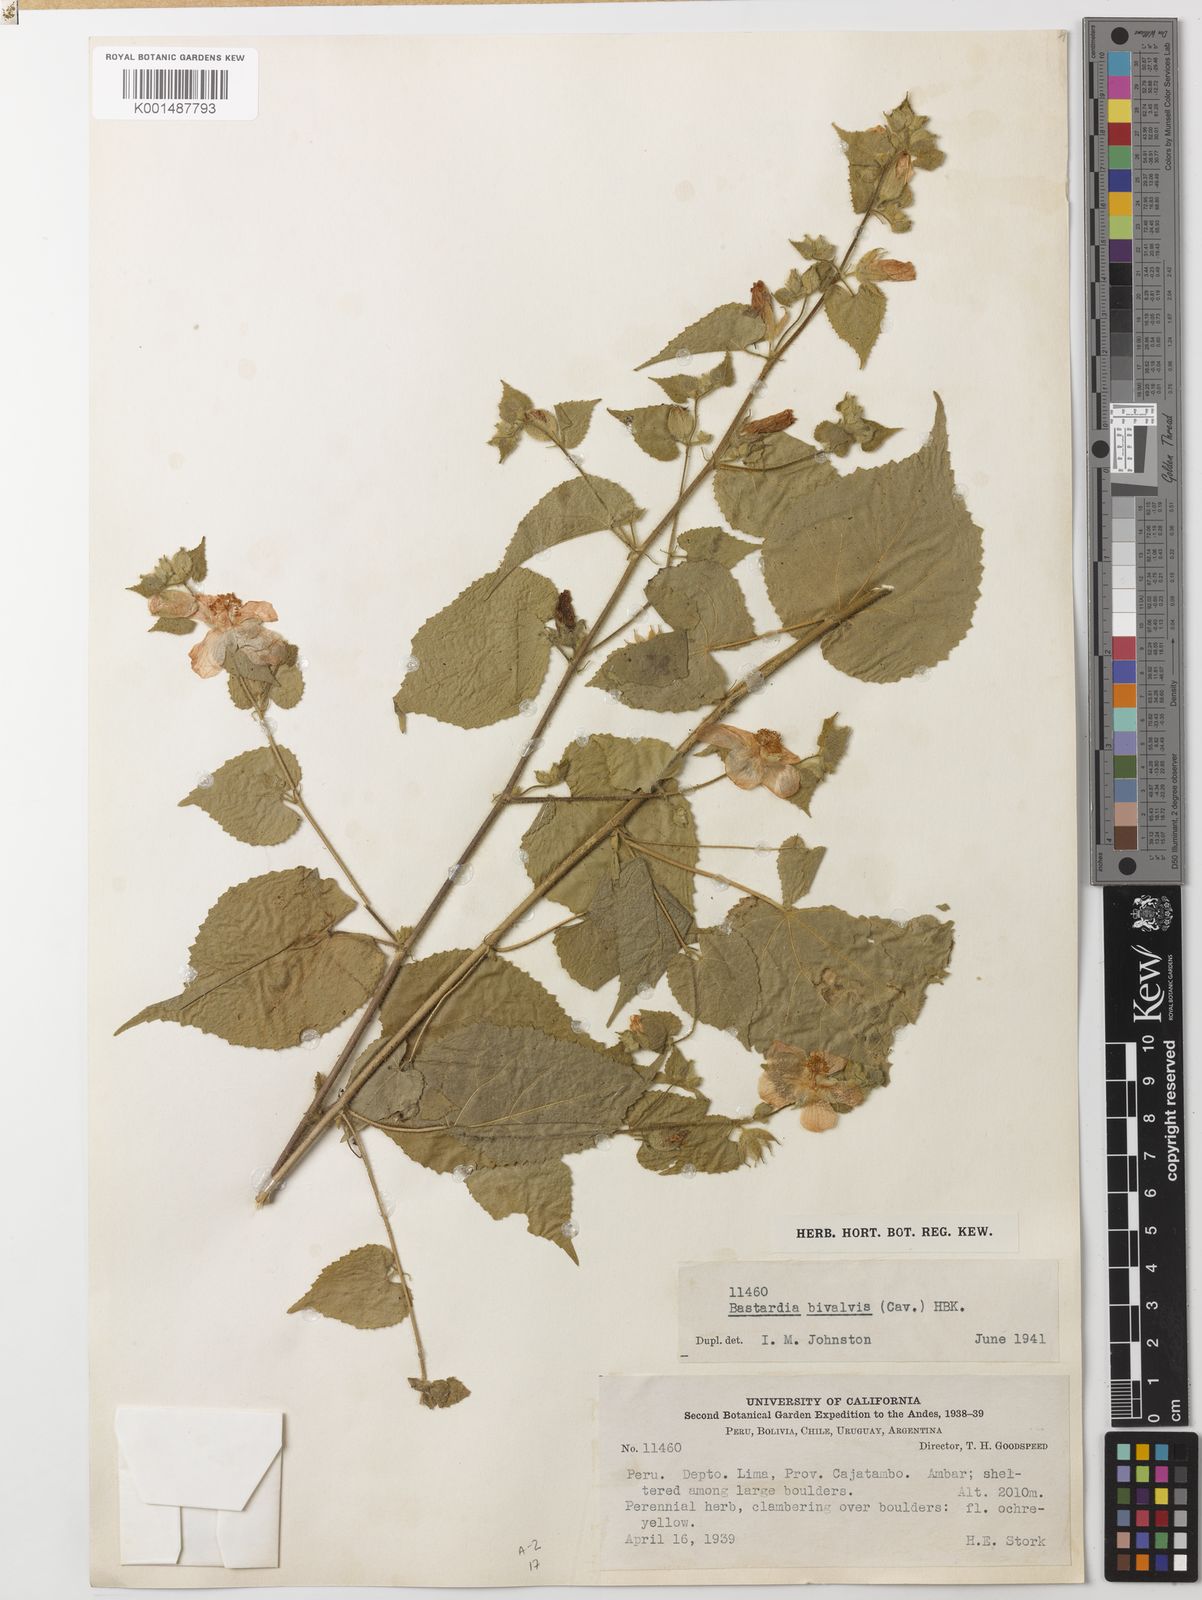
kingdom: Plantae
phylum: Tracheophyta
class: Magnoliopsida
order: Malvales
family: Malvaceae
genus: Abutilon
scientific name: Abutilon bivalve
